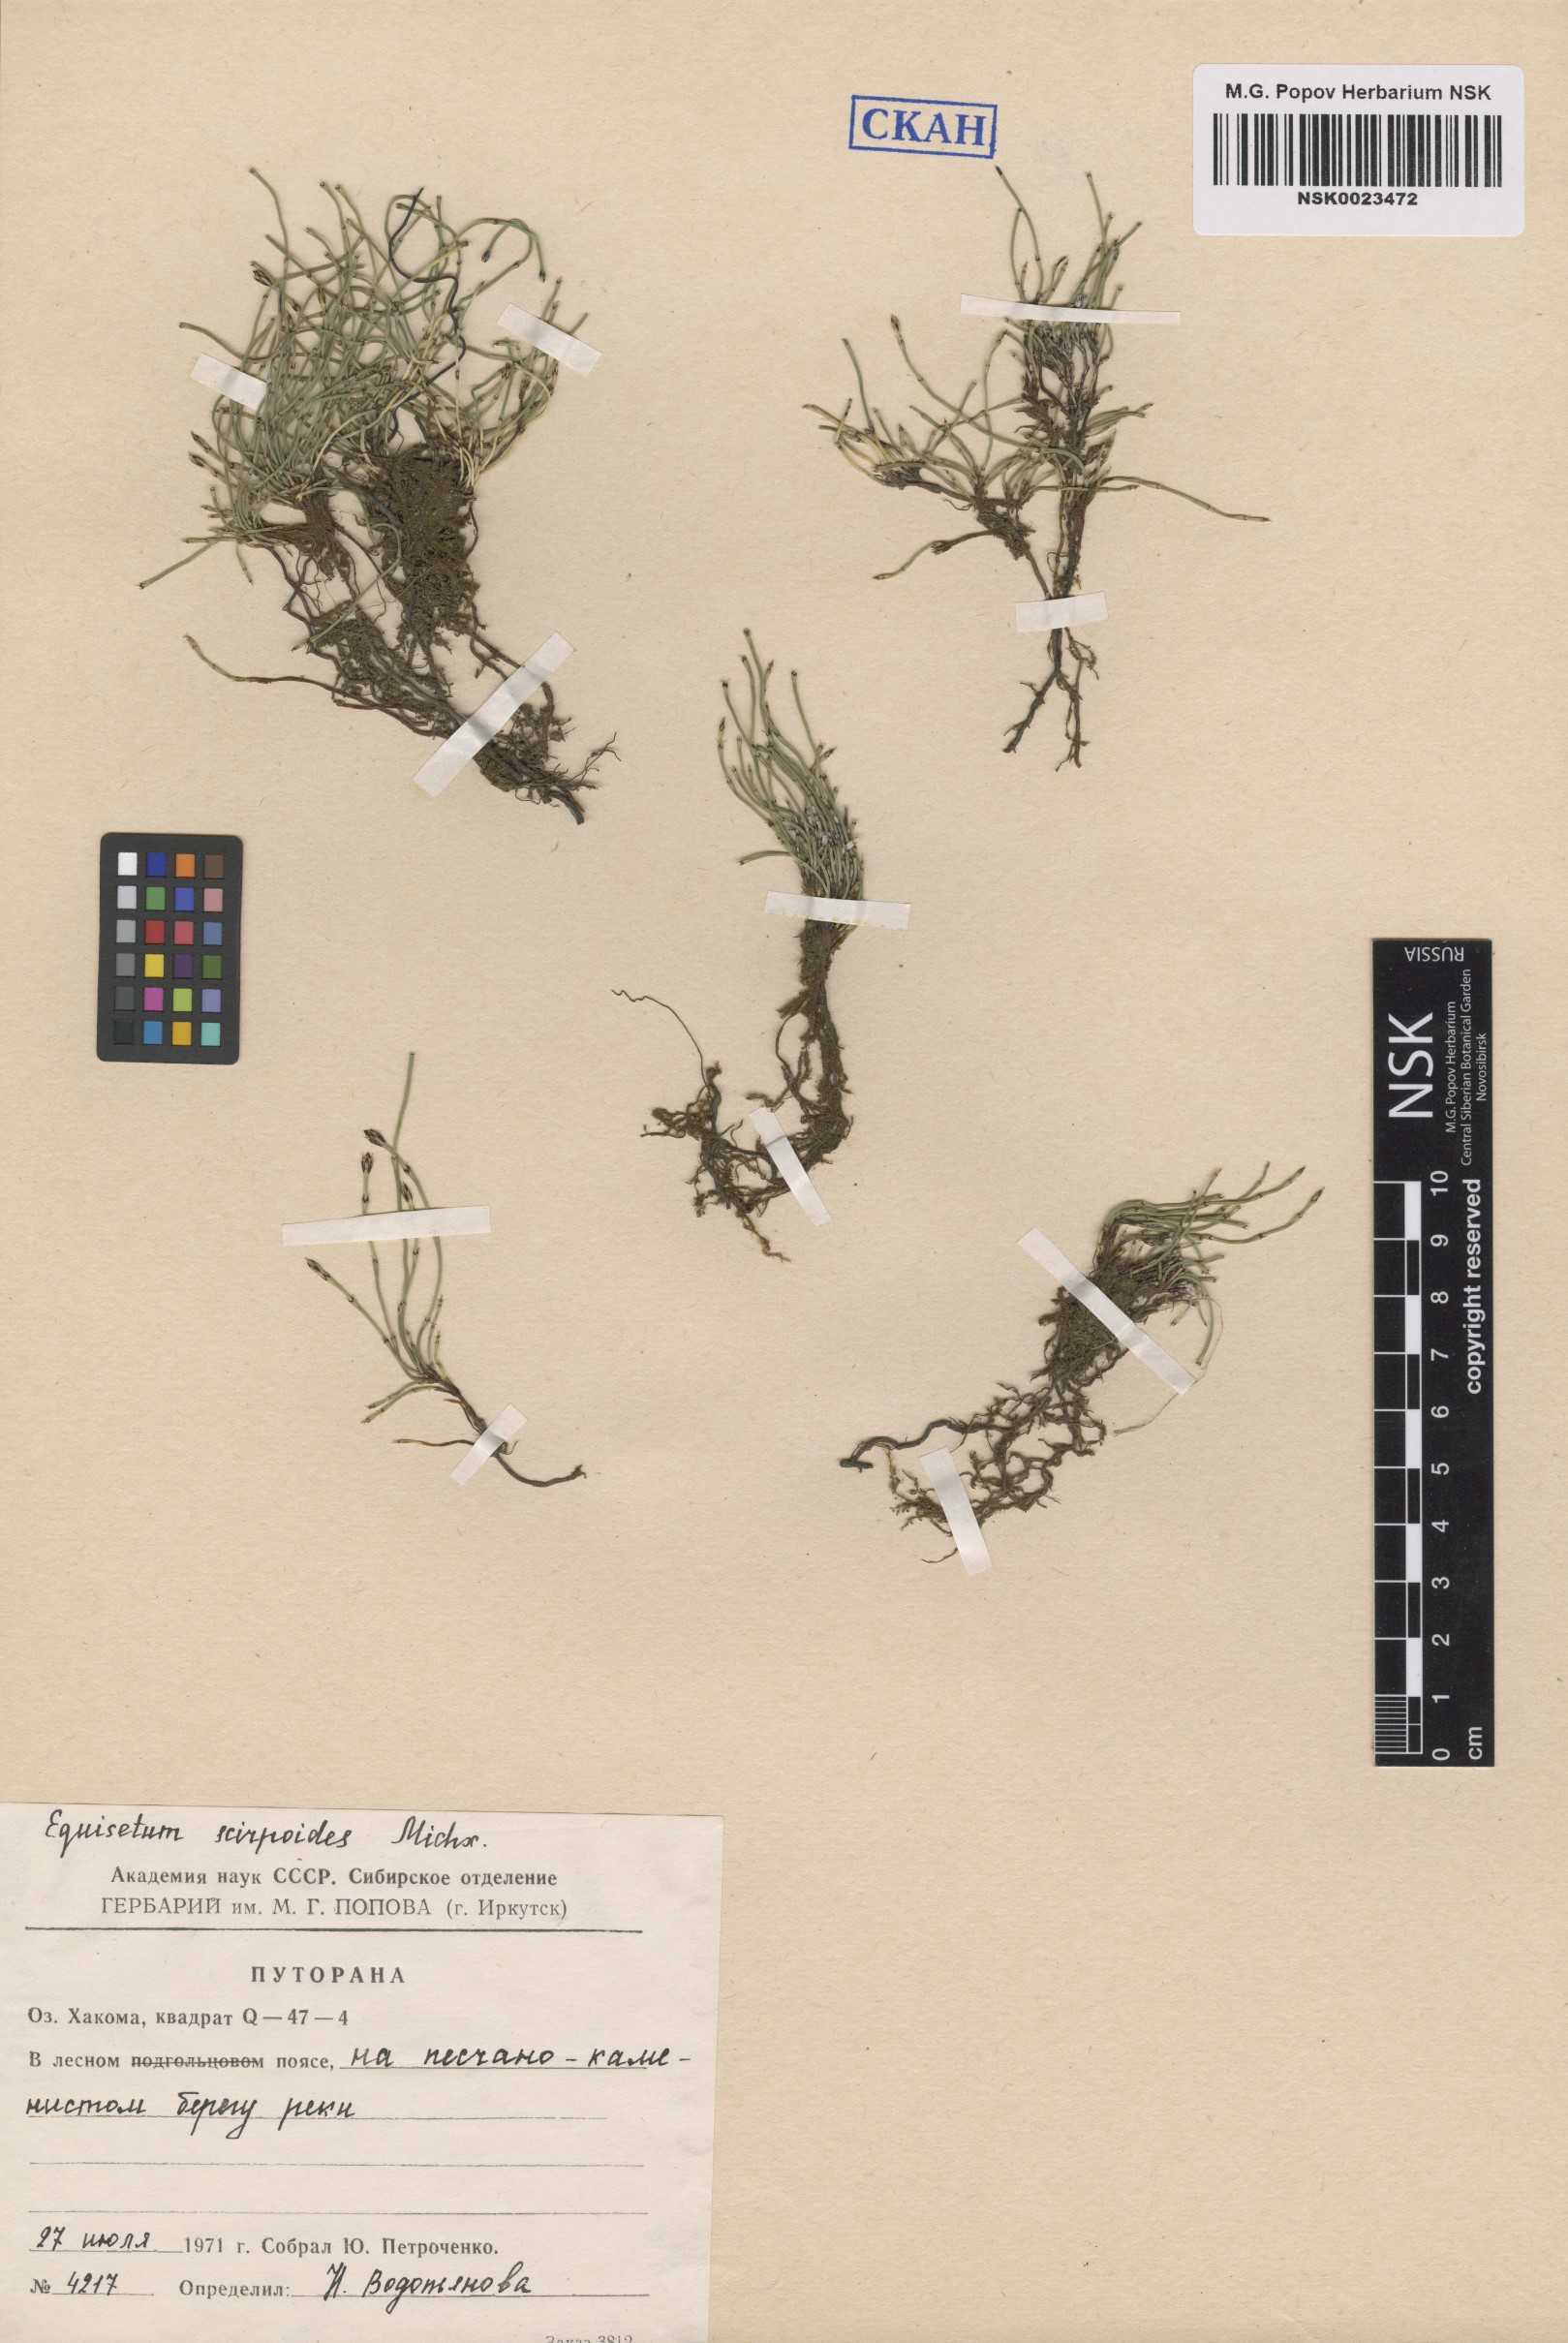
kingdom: Plantae
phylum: Tracheophyta
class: Polypodiopsida
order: Equisetales
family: Equisetaceae
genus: Equisetum
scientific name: Equisetum scirpoides
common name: Delicate horsetail
